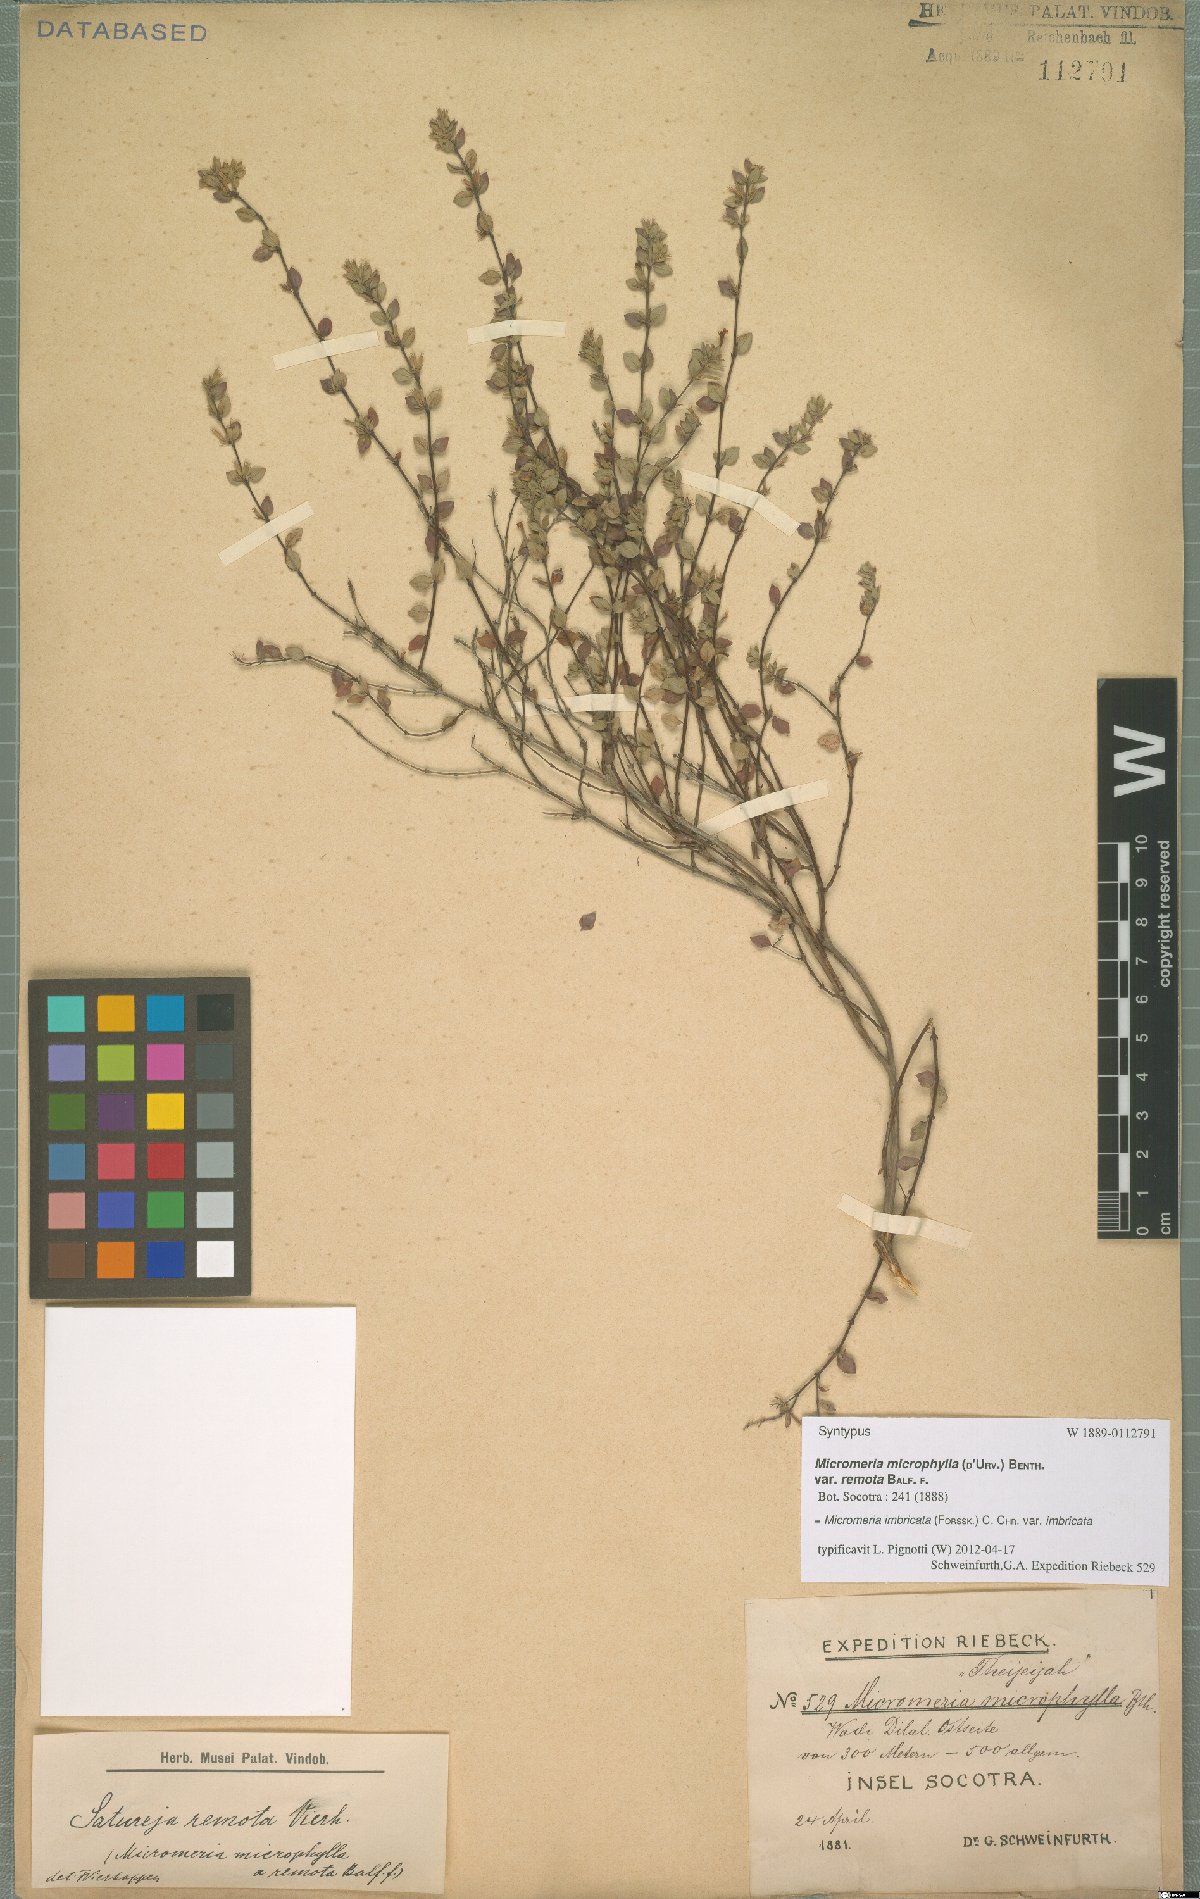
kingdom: Plantae
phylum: Tracheophyta
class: Magnoliopsida
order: Lamiales
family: Lamiaceae
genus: Micromeria
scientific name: Micromeria imbricata
